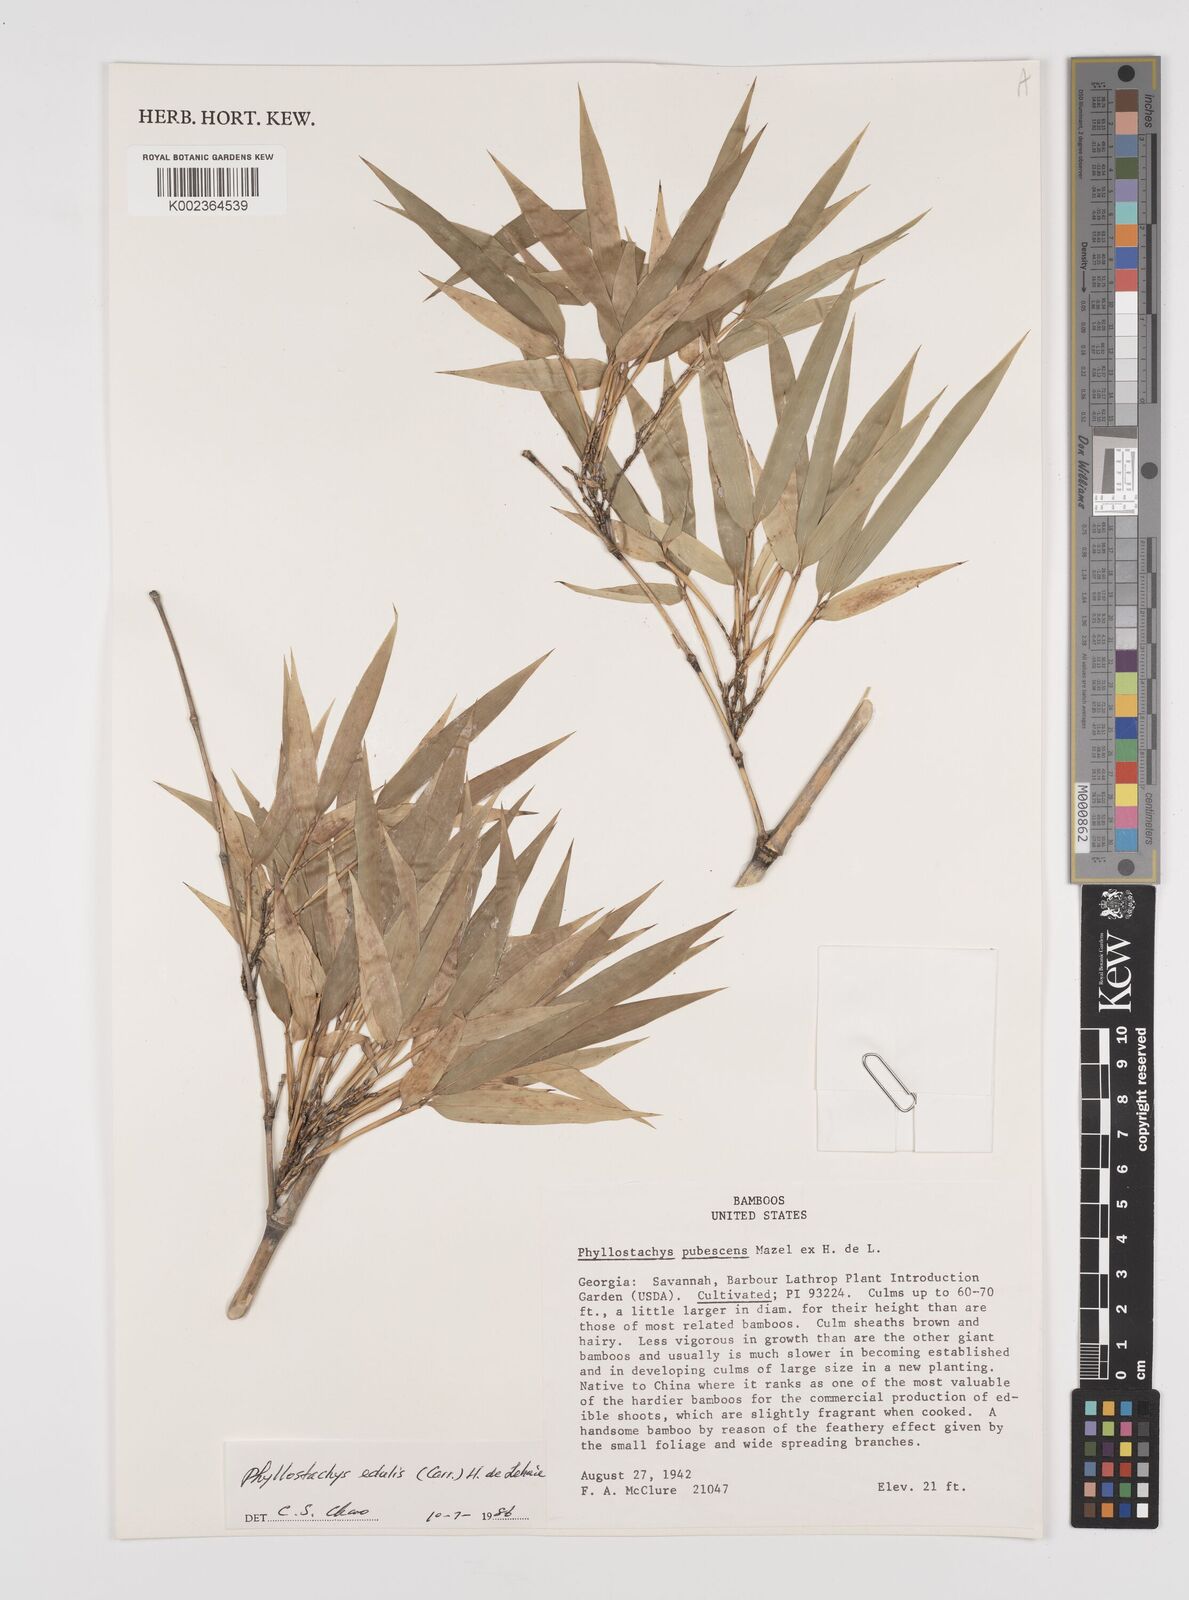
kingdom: Plantae
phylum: Tracheophyta
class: Liliopsida
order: Poales
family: Poaceae
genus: Phyllostachys
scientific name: Phyllostachys edulis
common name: Tortoise shell bamboo
